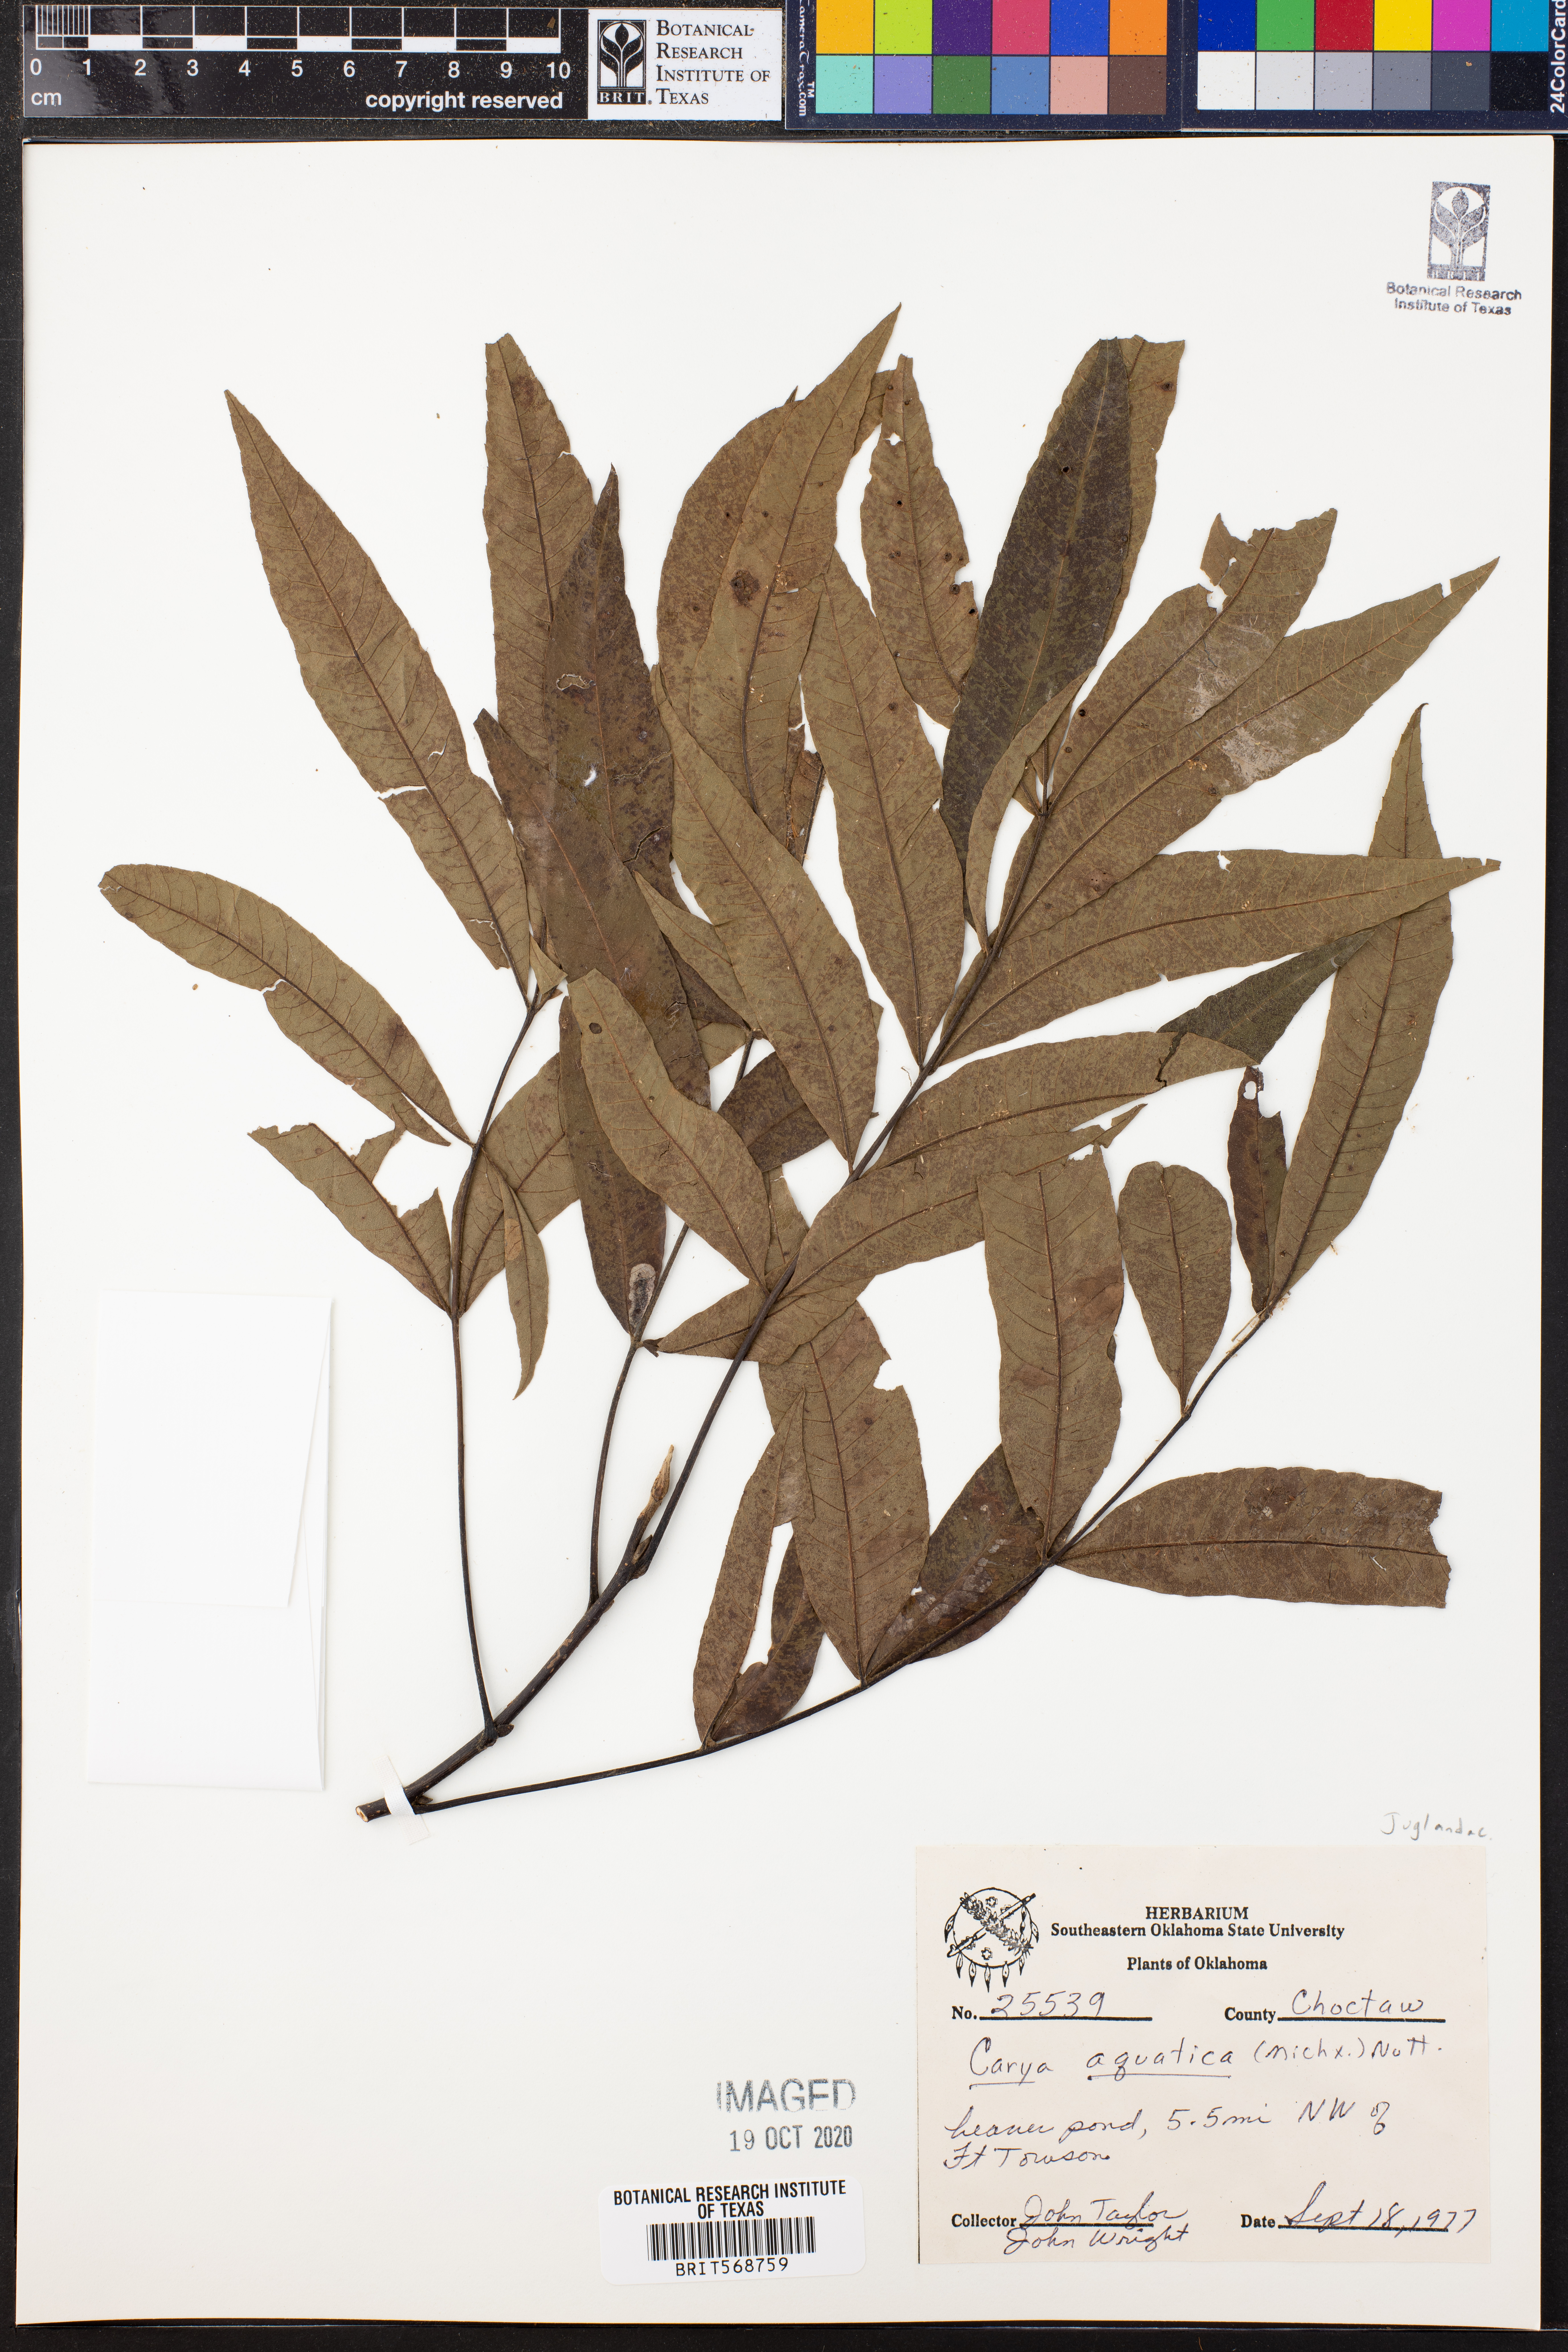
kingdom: Plantae
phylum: Tracheophyta
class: Magnoliopsida
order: Fagales
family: Juglandaceae
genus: Carya
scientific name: Carya aquatica
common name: Water hickory
